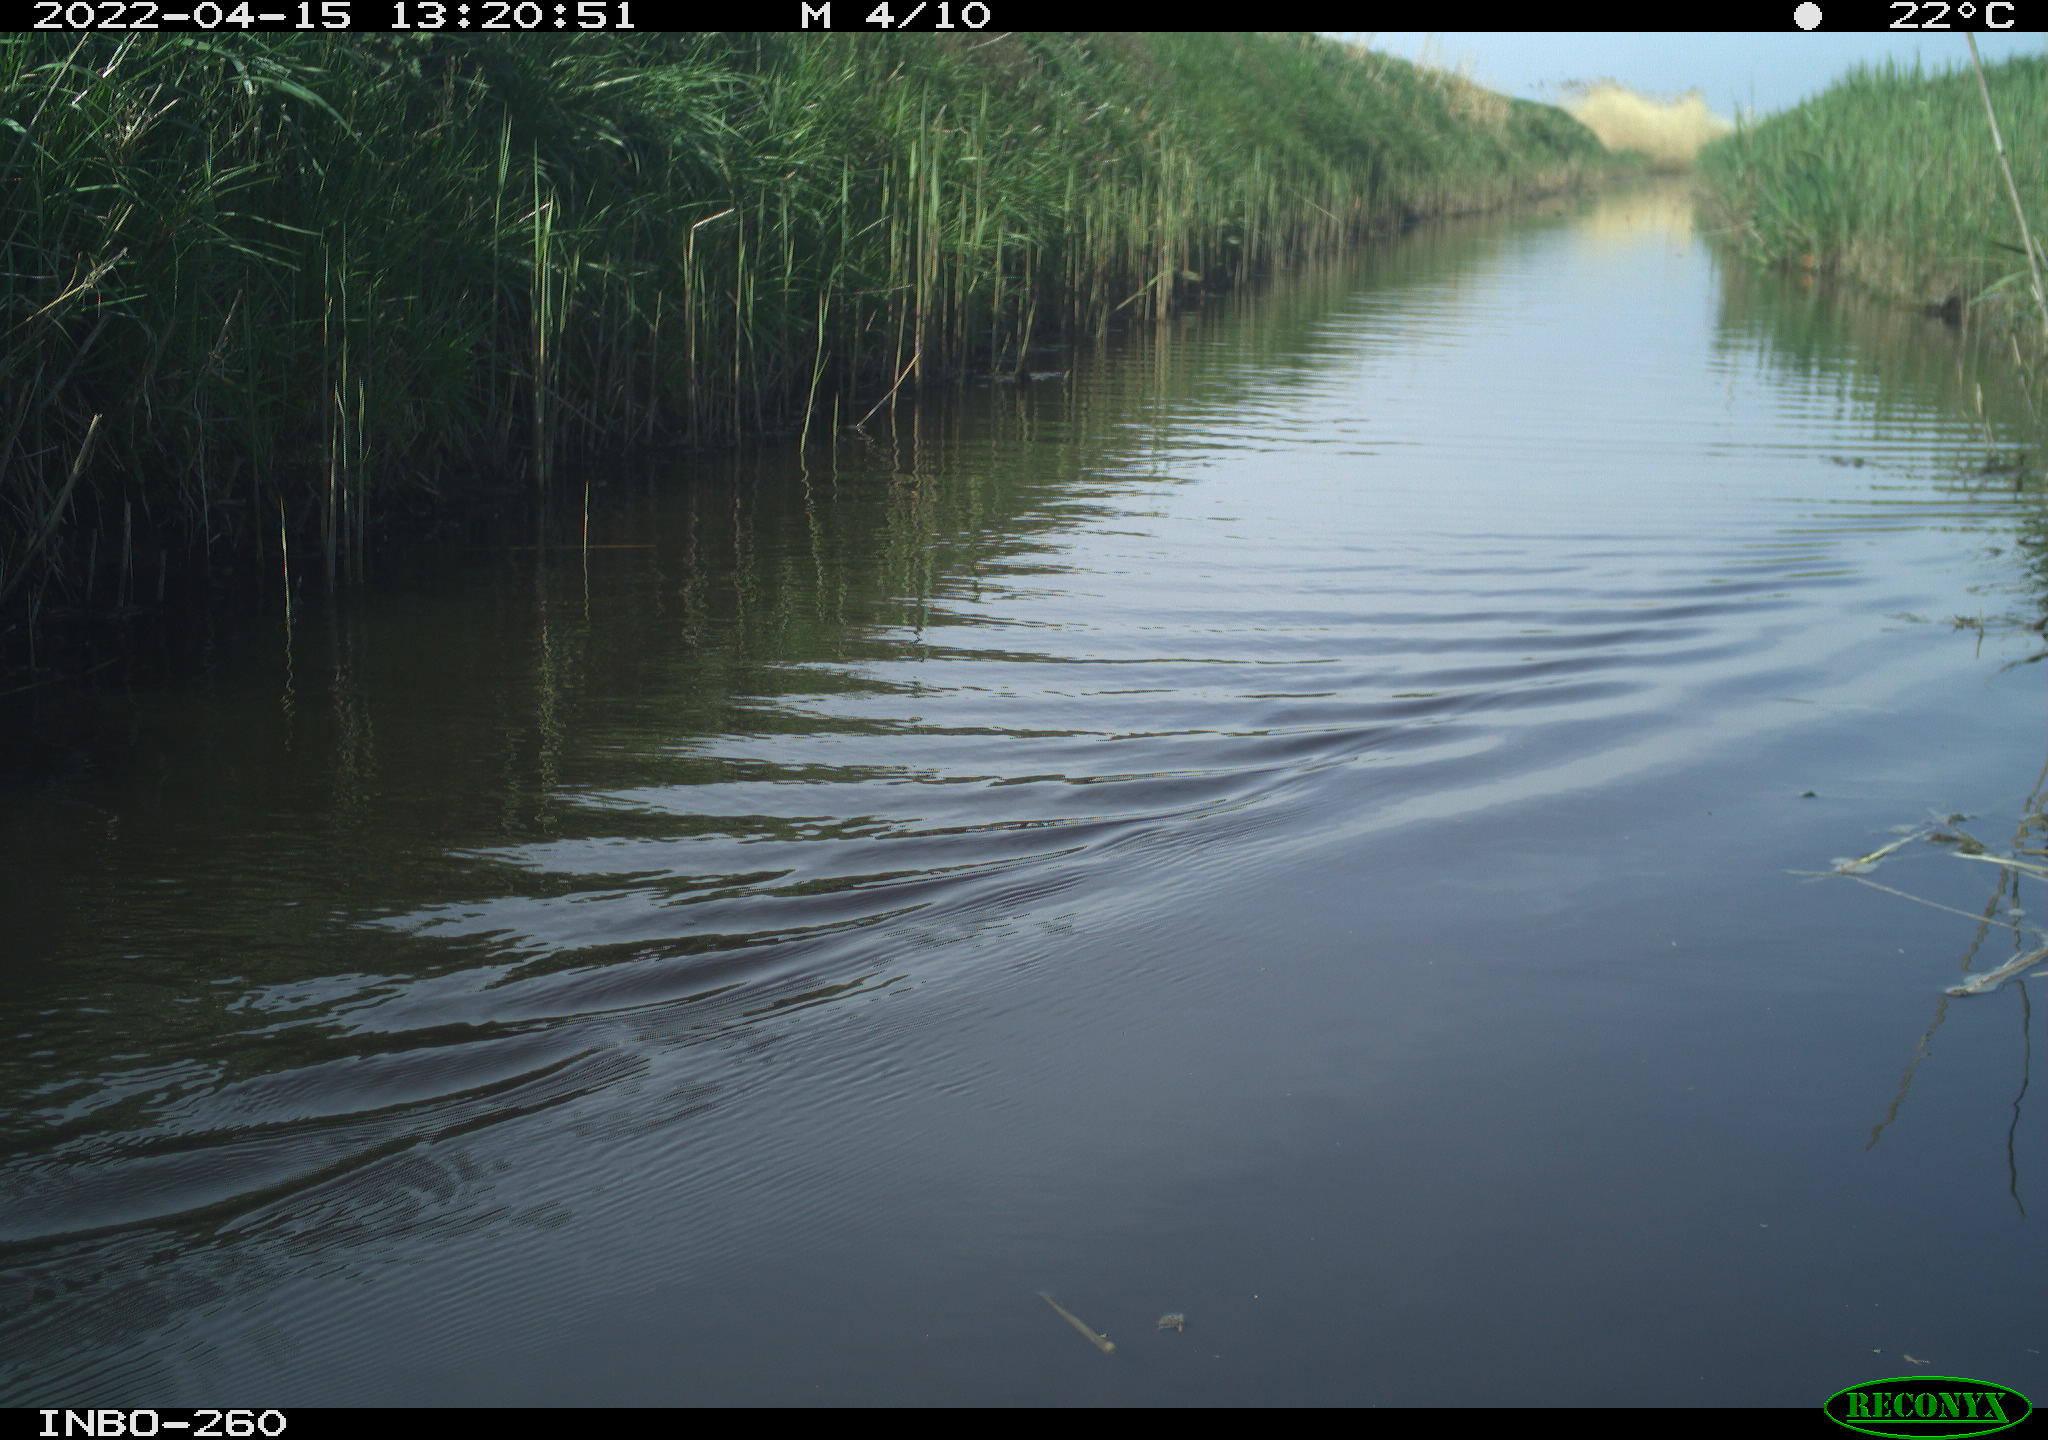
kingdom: Animalia
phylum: Chordata
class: Aves
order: Gruiformes
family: Rallidae
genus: Fulica
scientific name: Fulica atra
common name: Eurasian coot
